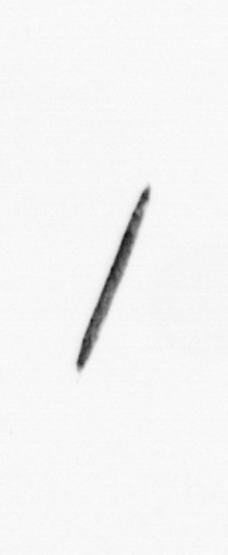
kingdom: Bacteria
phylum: Cyanobacteria
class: Cyanobacteriia
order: Cyanobacteriales
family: Microcoleaceae
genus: Trichodesmium
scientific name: Trichodesmium
